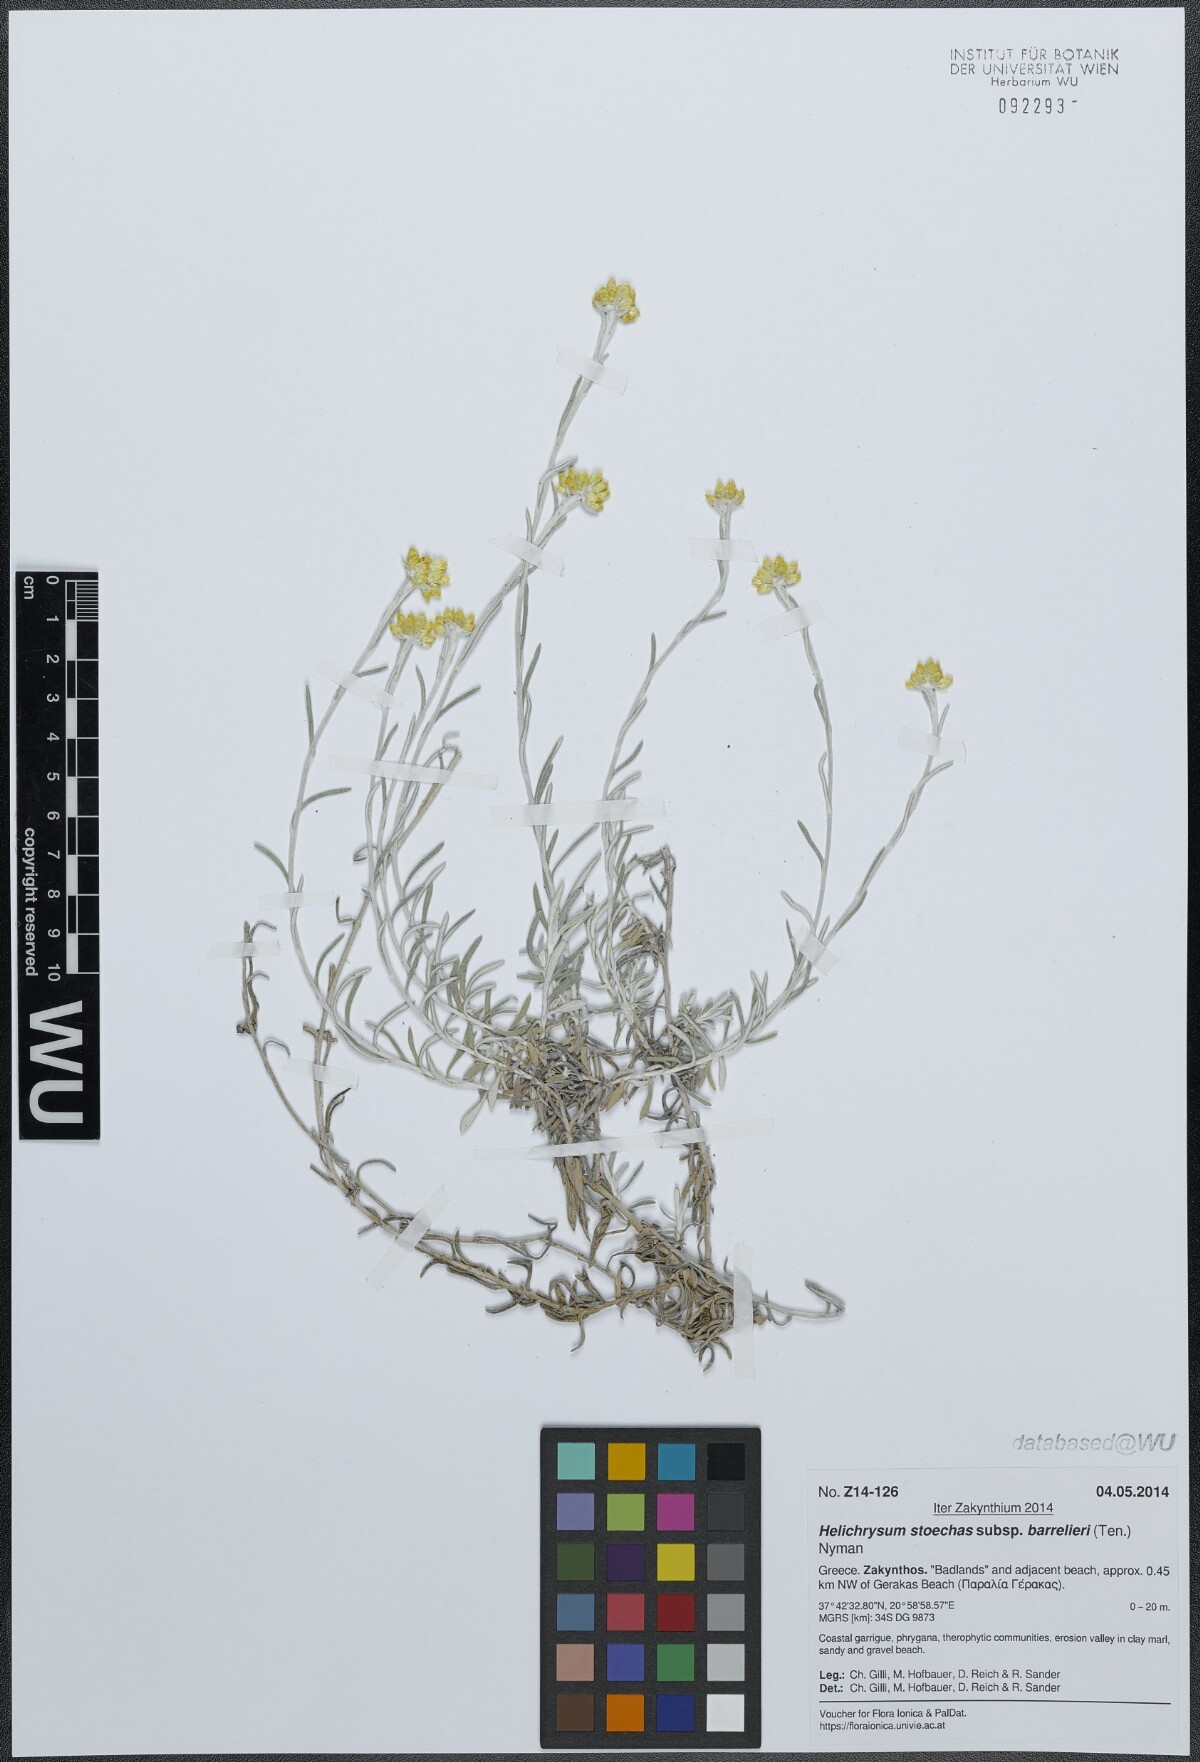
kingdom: Plantae
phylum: Tracheophyta
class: Magnoliopsida
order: Asterales
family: Asteraceae
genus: Helichrysum
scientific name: Helichrysum stoechas
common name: Goldilocks
